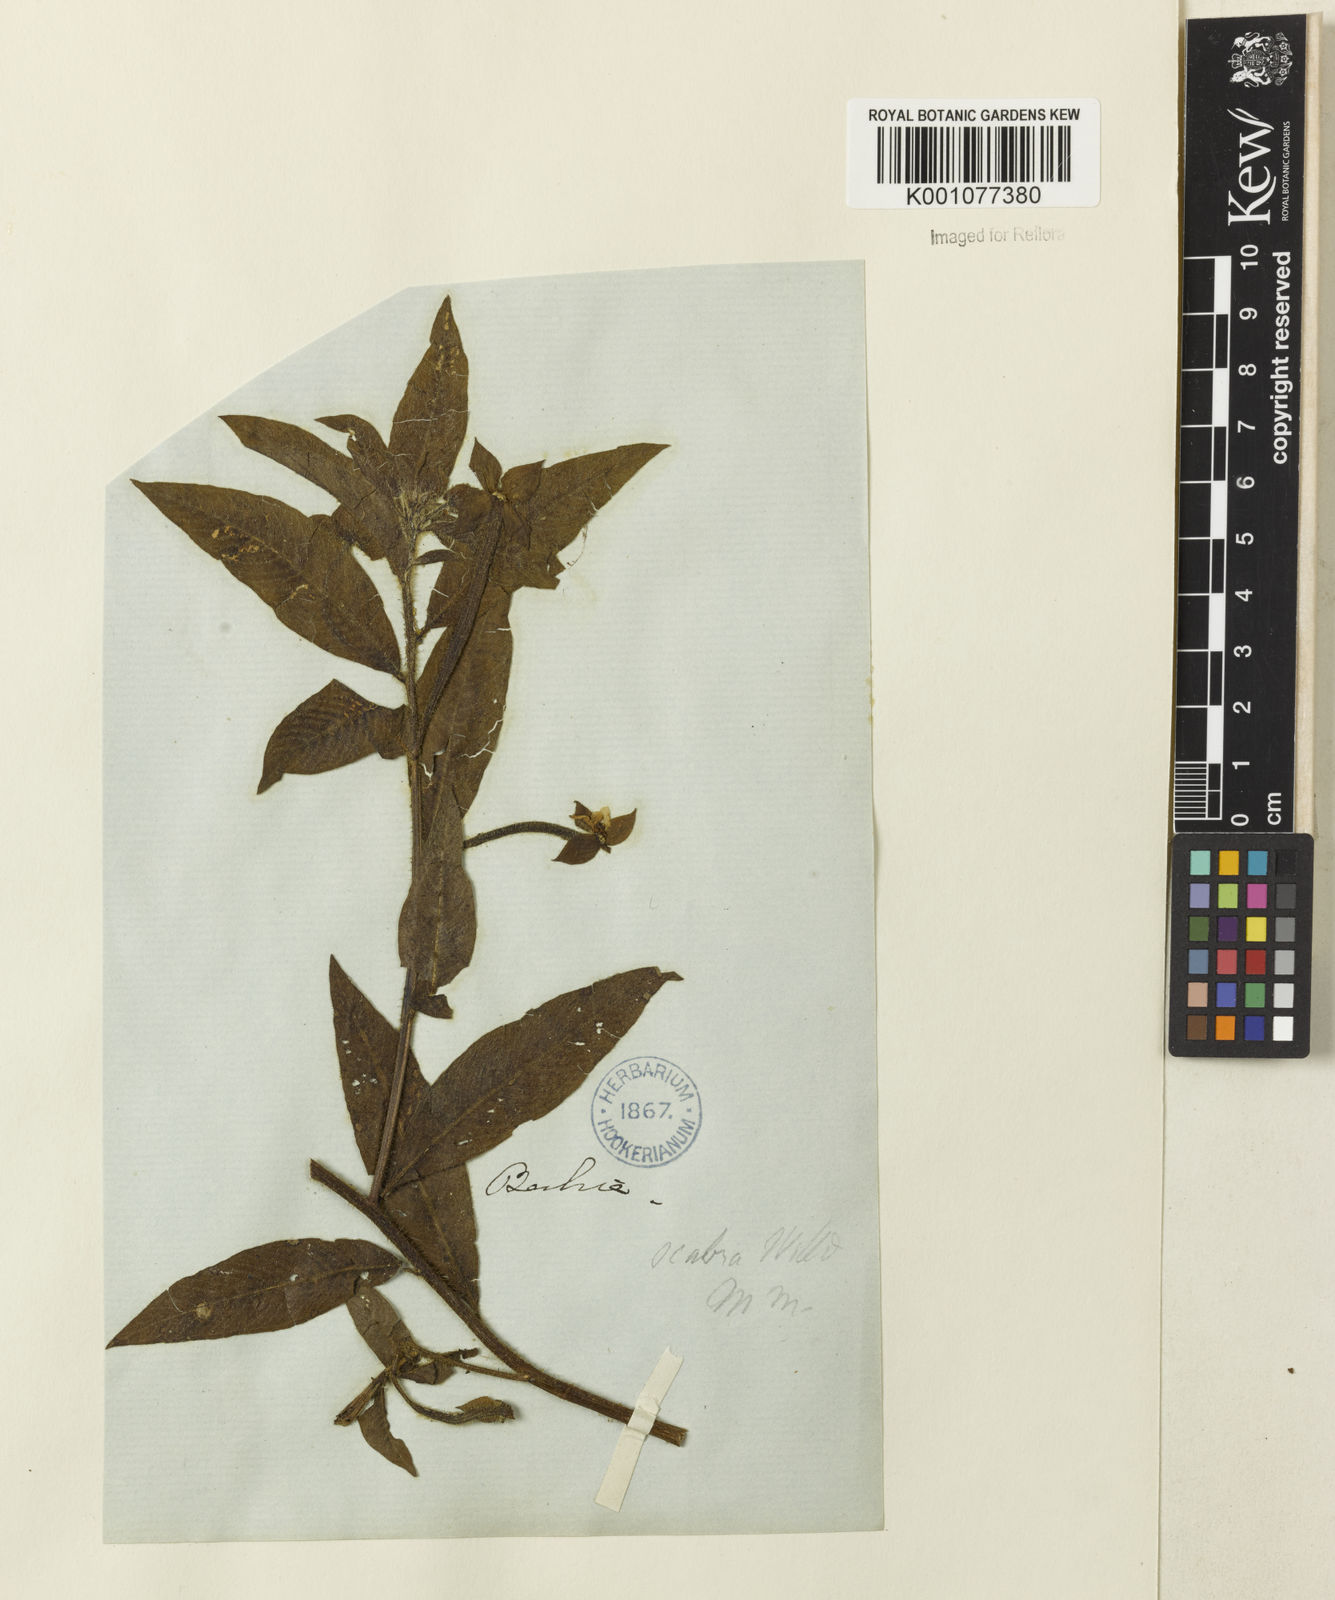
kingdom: Plantae
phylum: Tracheophyta
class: Magnoliopsida
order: Myrtales
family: Onagraceae
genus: Ludwigia
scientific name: Ludwigia octovalvis
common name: Water-primrose
